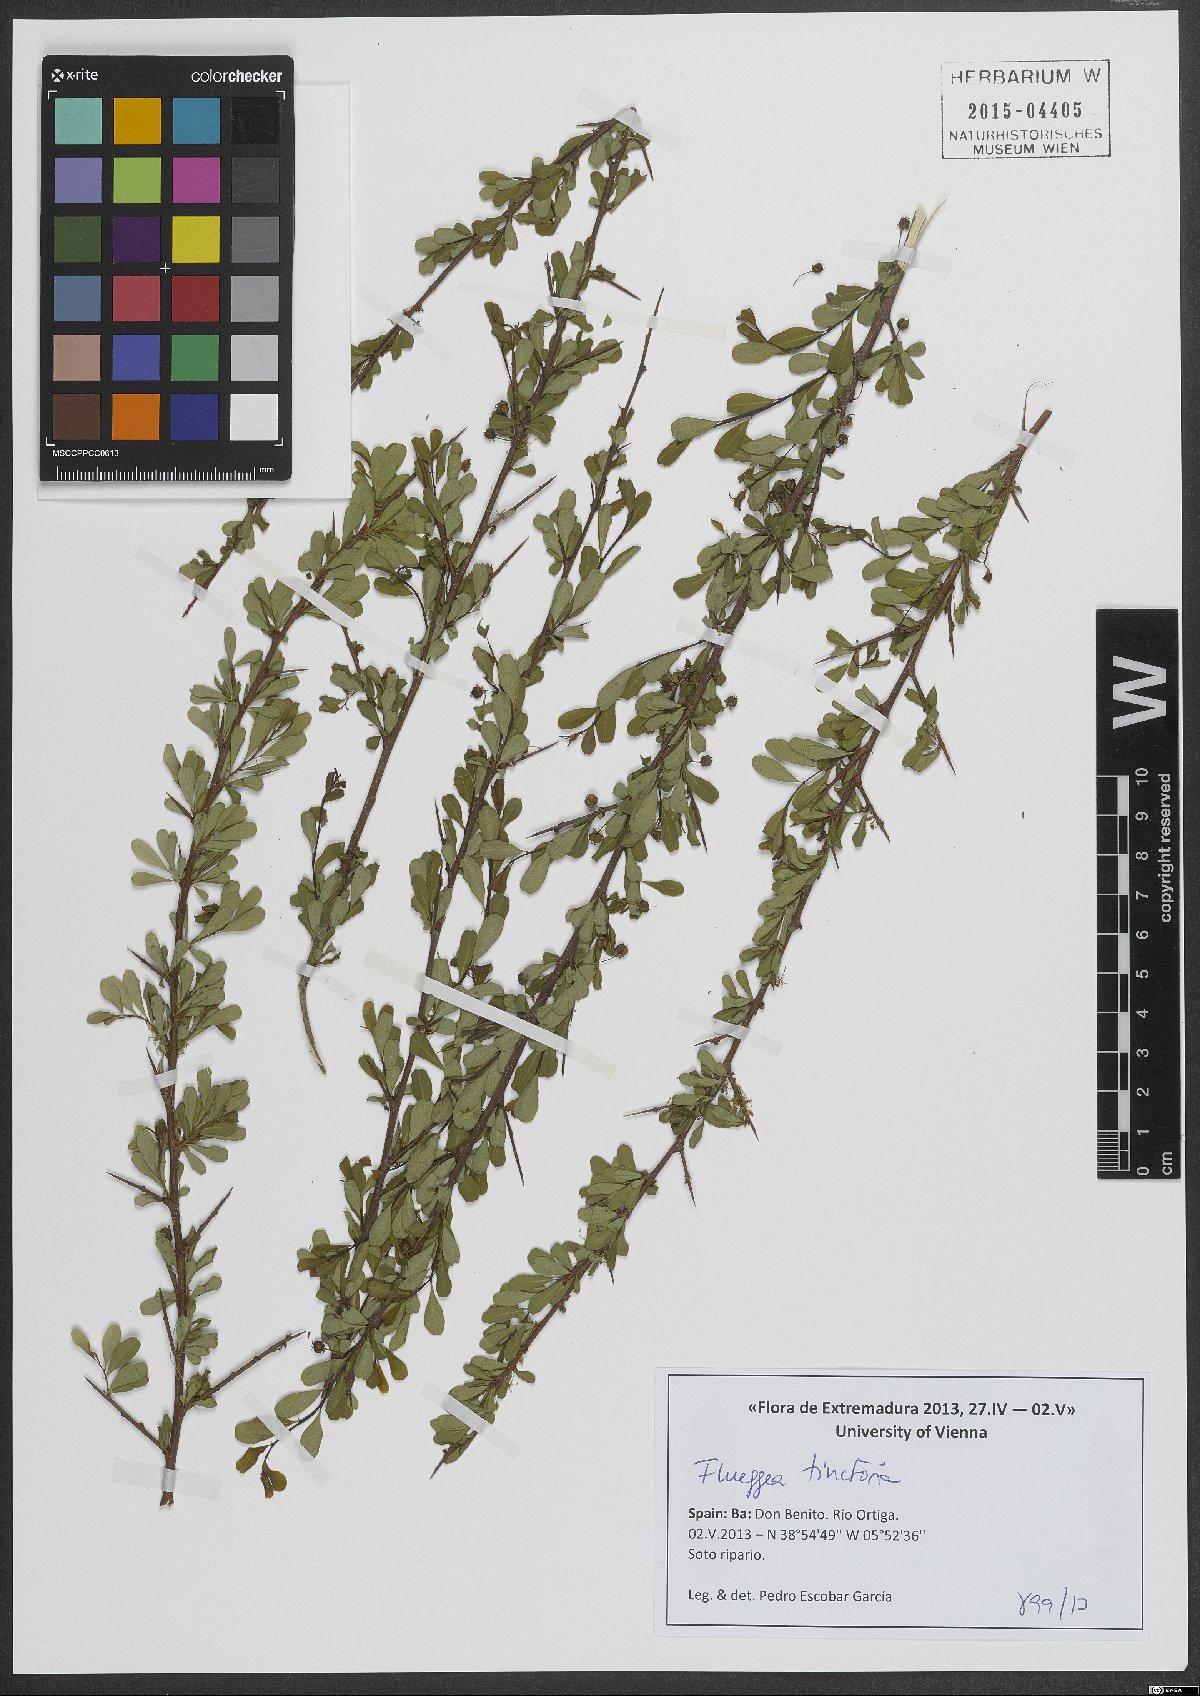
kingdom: Plantae
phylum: Tracheophyta
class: Magnoliopsida
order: Malpighiales
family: Phyllanthaceae
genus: Flueggea
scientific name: Flueggea tinctoria
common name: Tamujo
